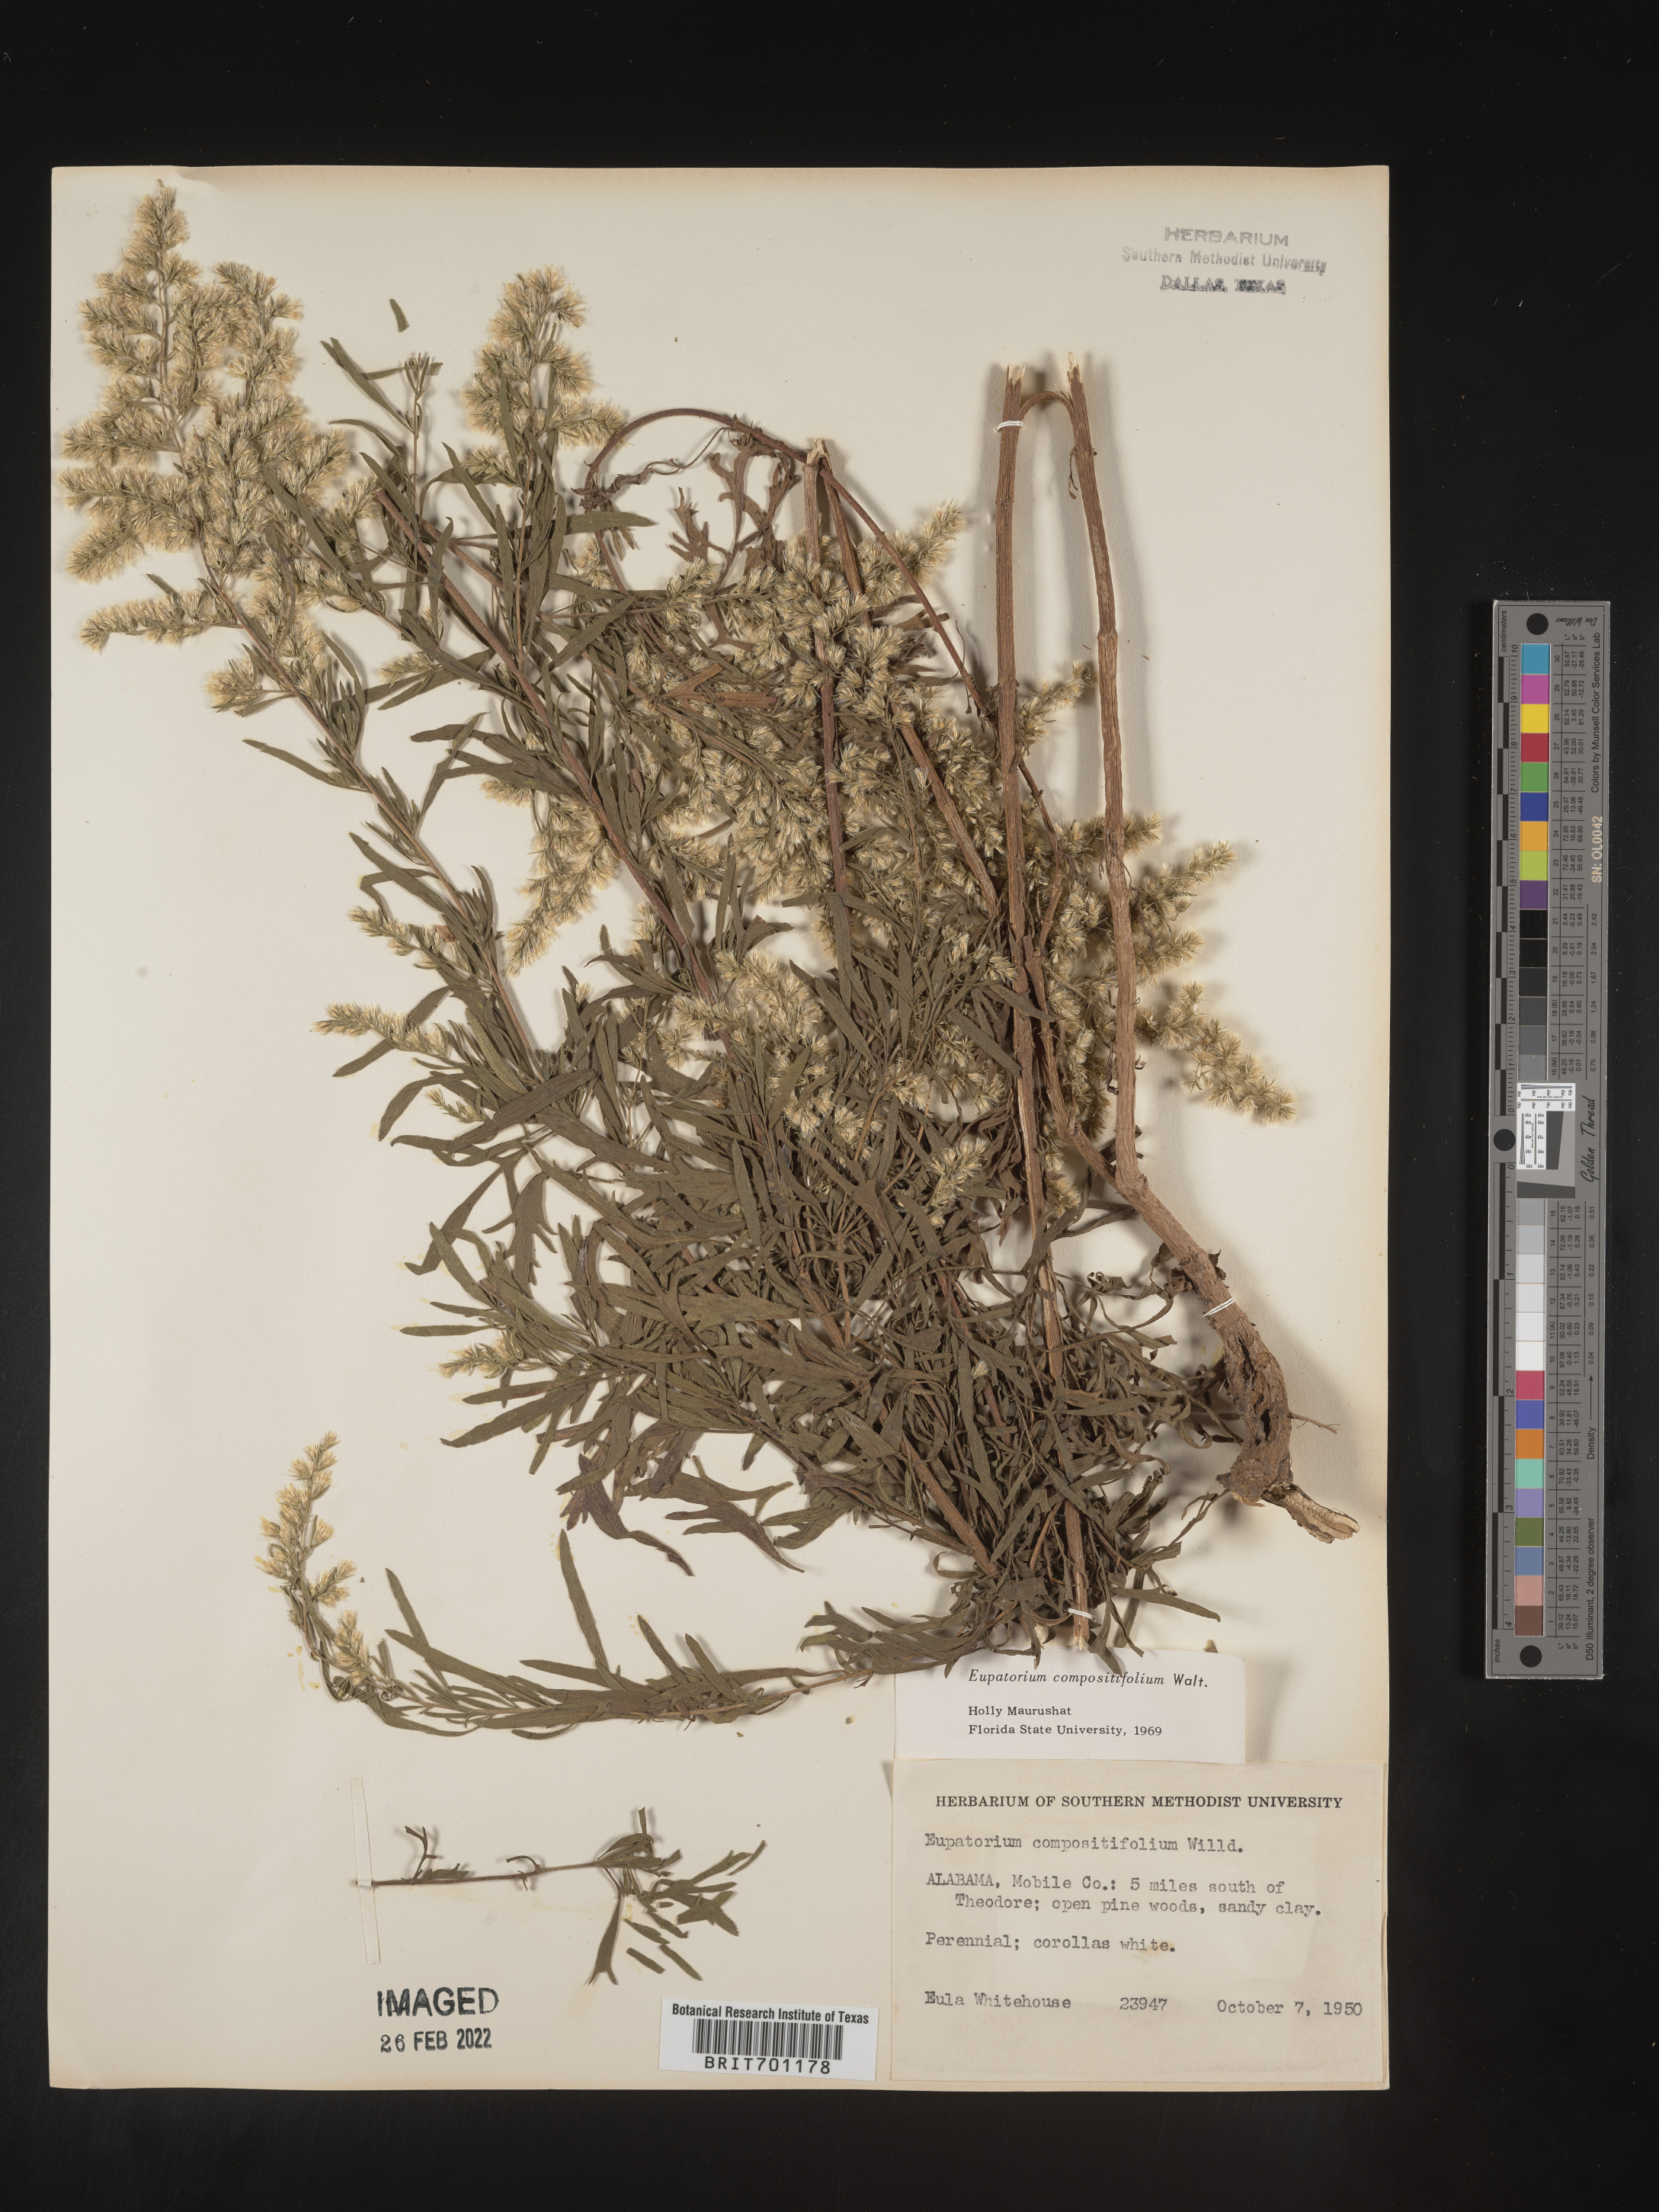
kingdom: Plantae
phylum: Tracheophyta
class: Magnoliopsida
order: Asterales
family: Asteraceae
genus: Eupatorium
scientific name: Eupatorium compositifolium
